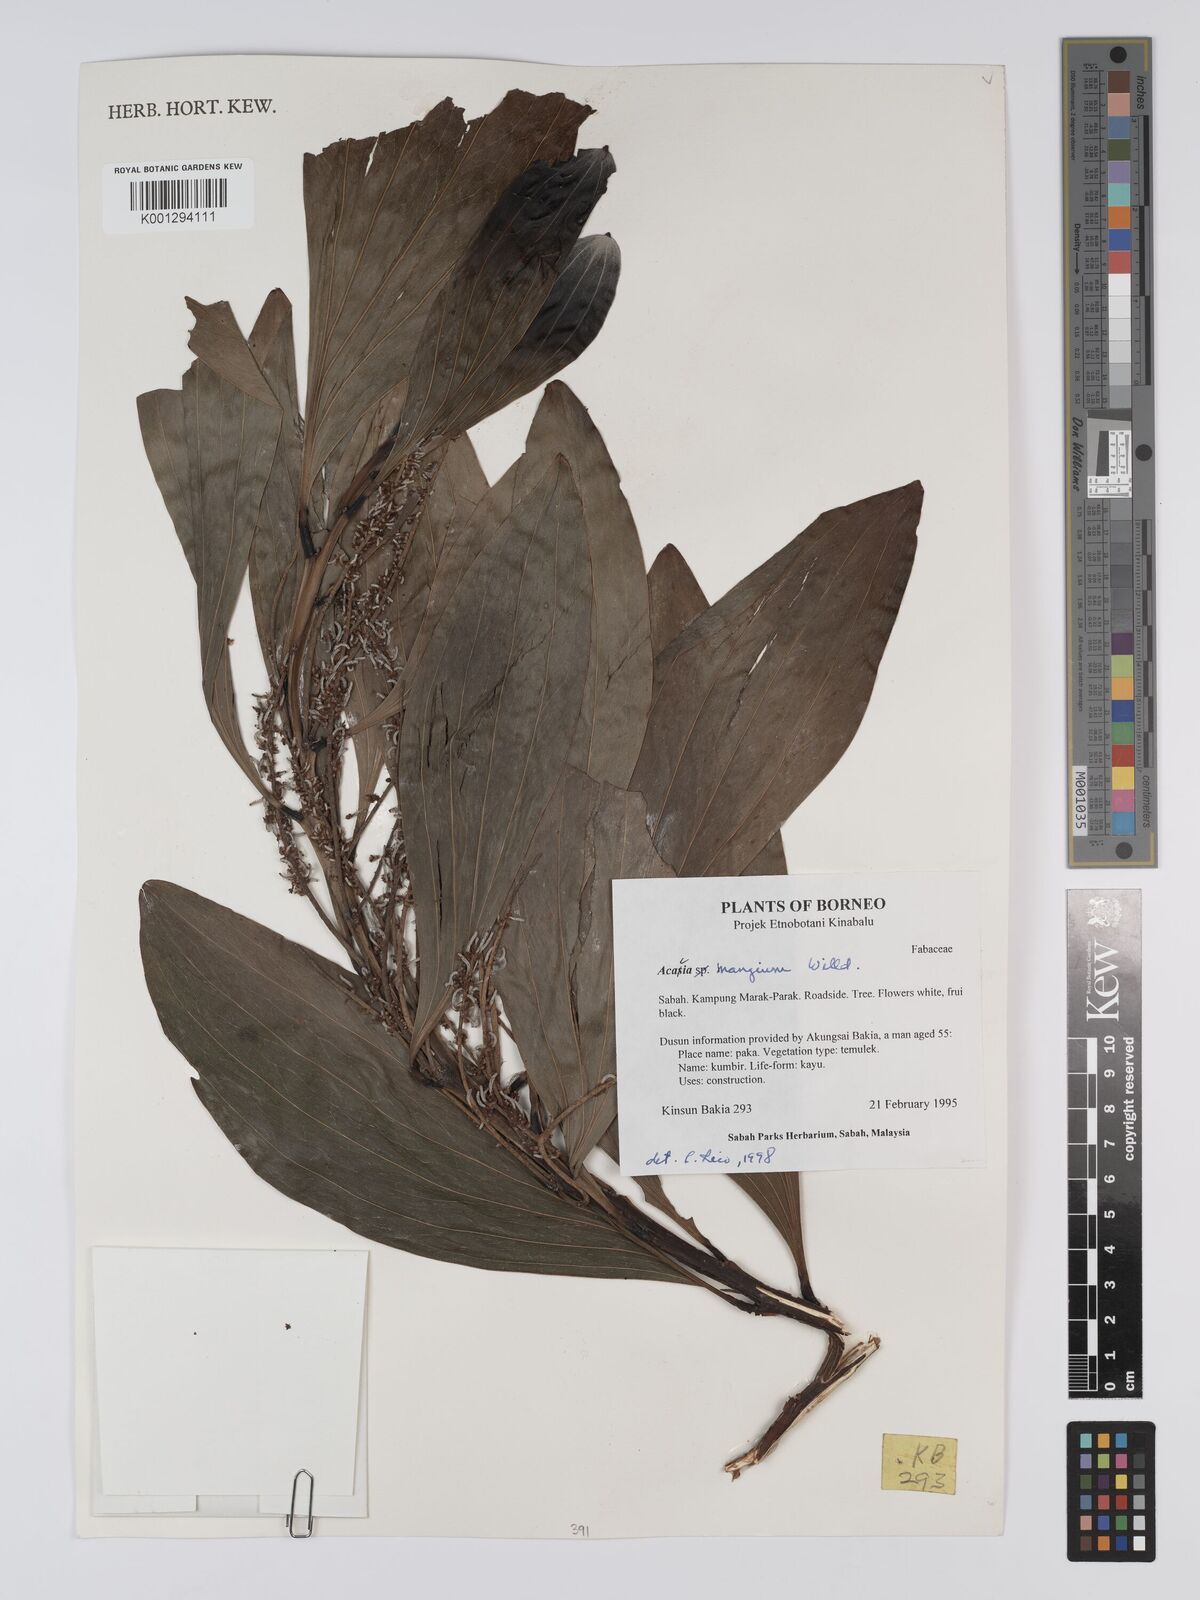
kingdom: Plantae
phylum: Tracheophyta
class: Magnoliopsida
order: Fabales
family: Fabaceae
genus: Acacia
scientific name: Acacia mangium
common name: Black wattle
